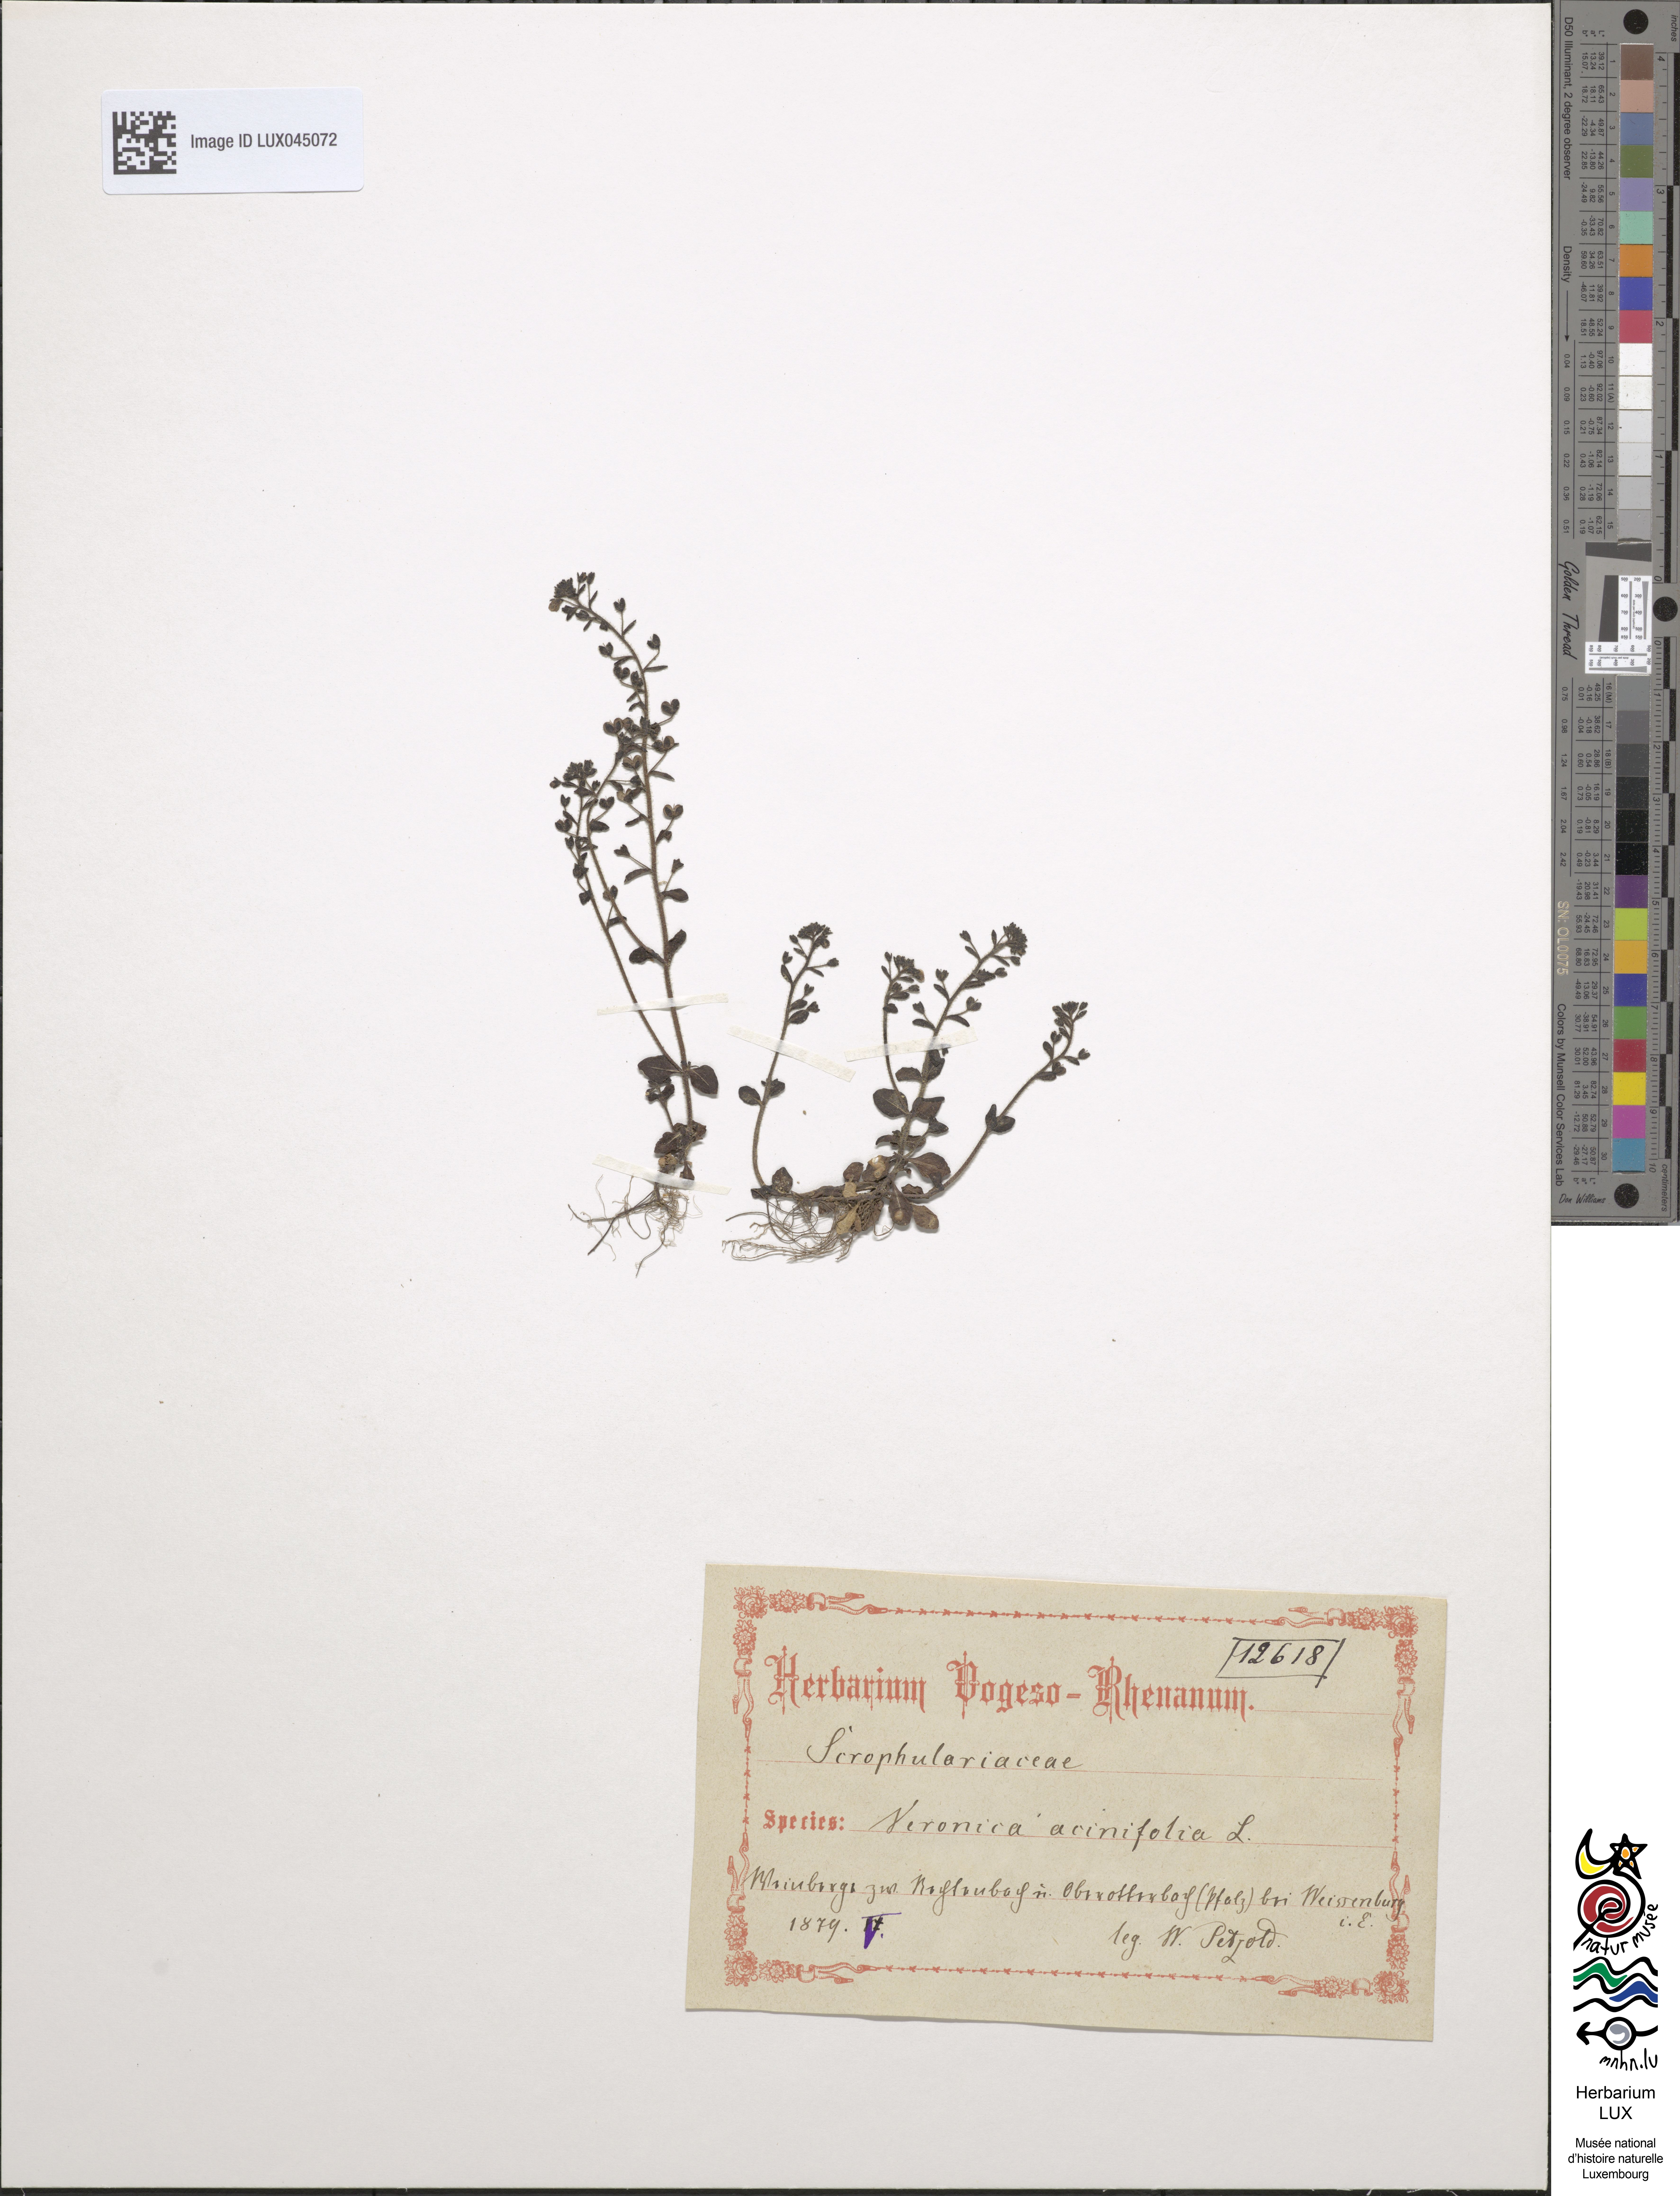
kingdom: Plantae
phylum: Tracheophyta
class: Magnoliopsida
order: Lamiales
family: Plantaginaceae
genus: Veronica
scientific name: Veronica acinifolia
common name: French speedwell
